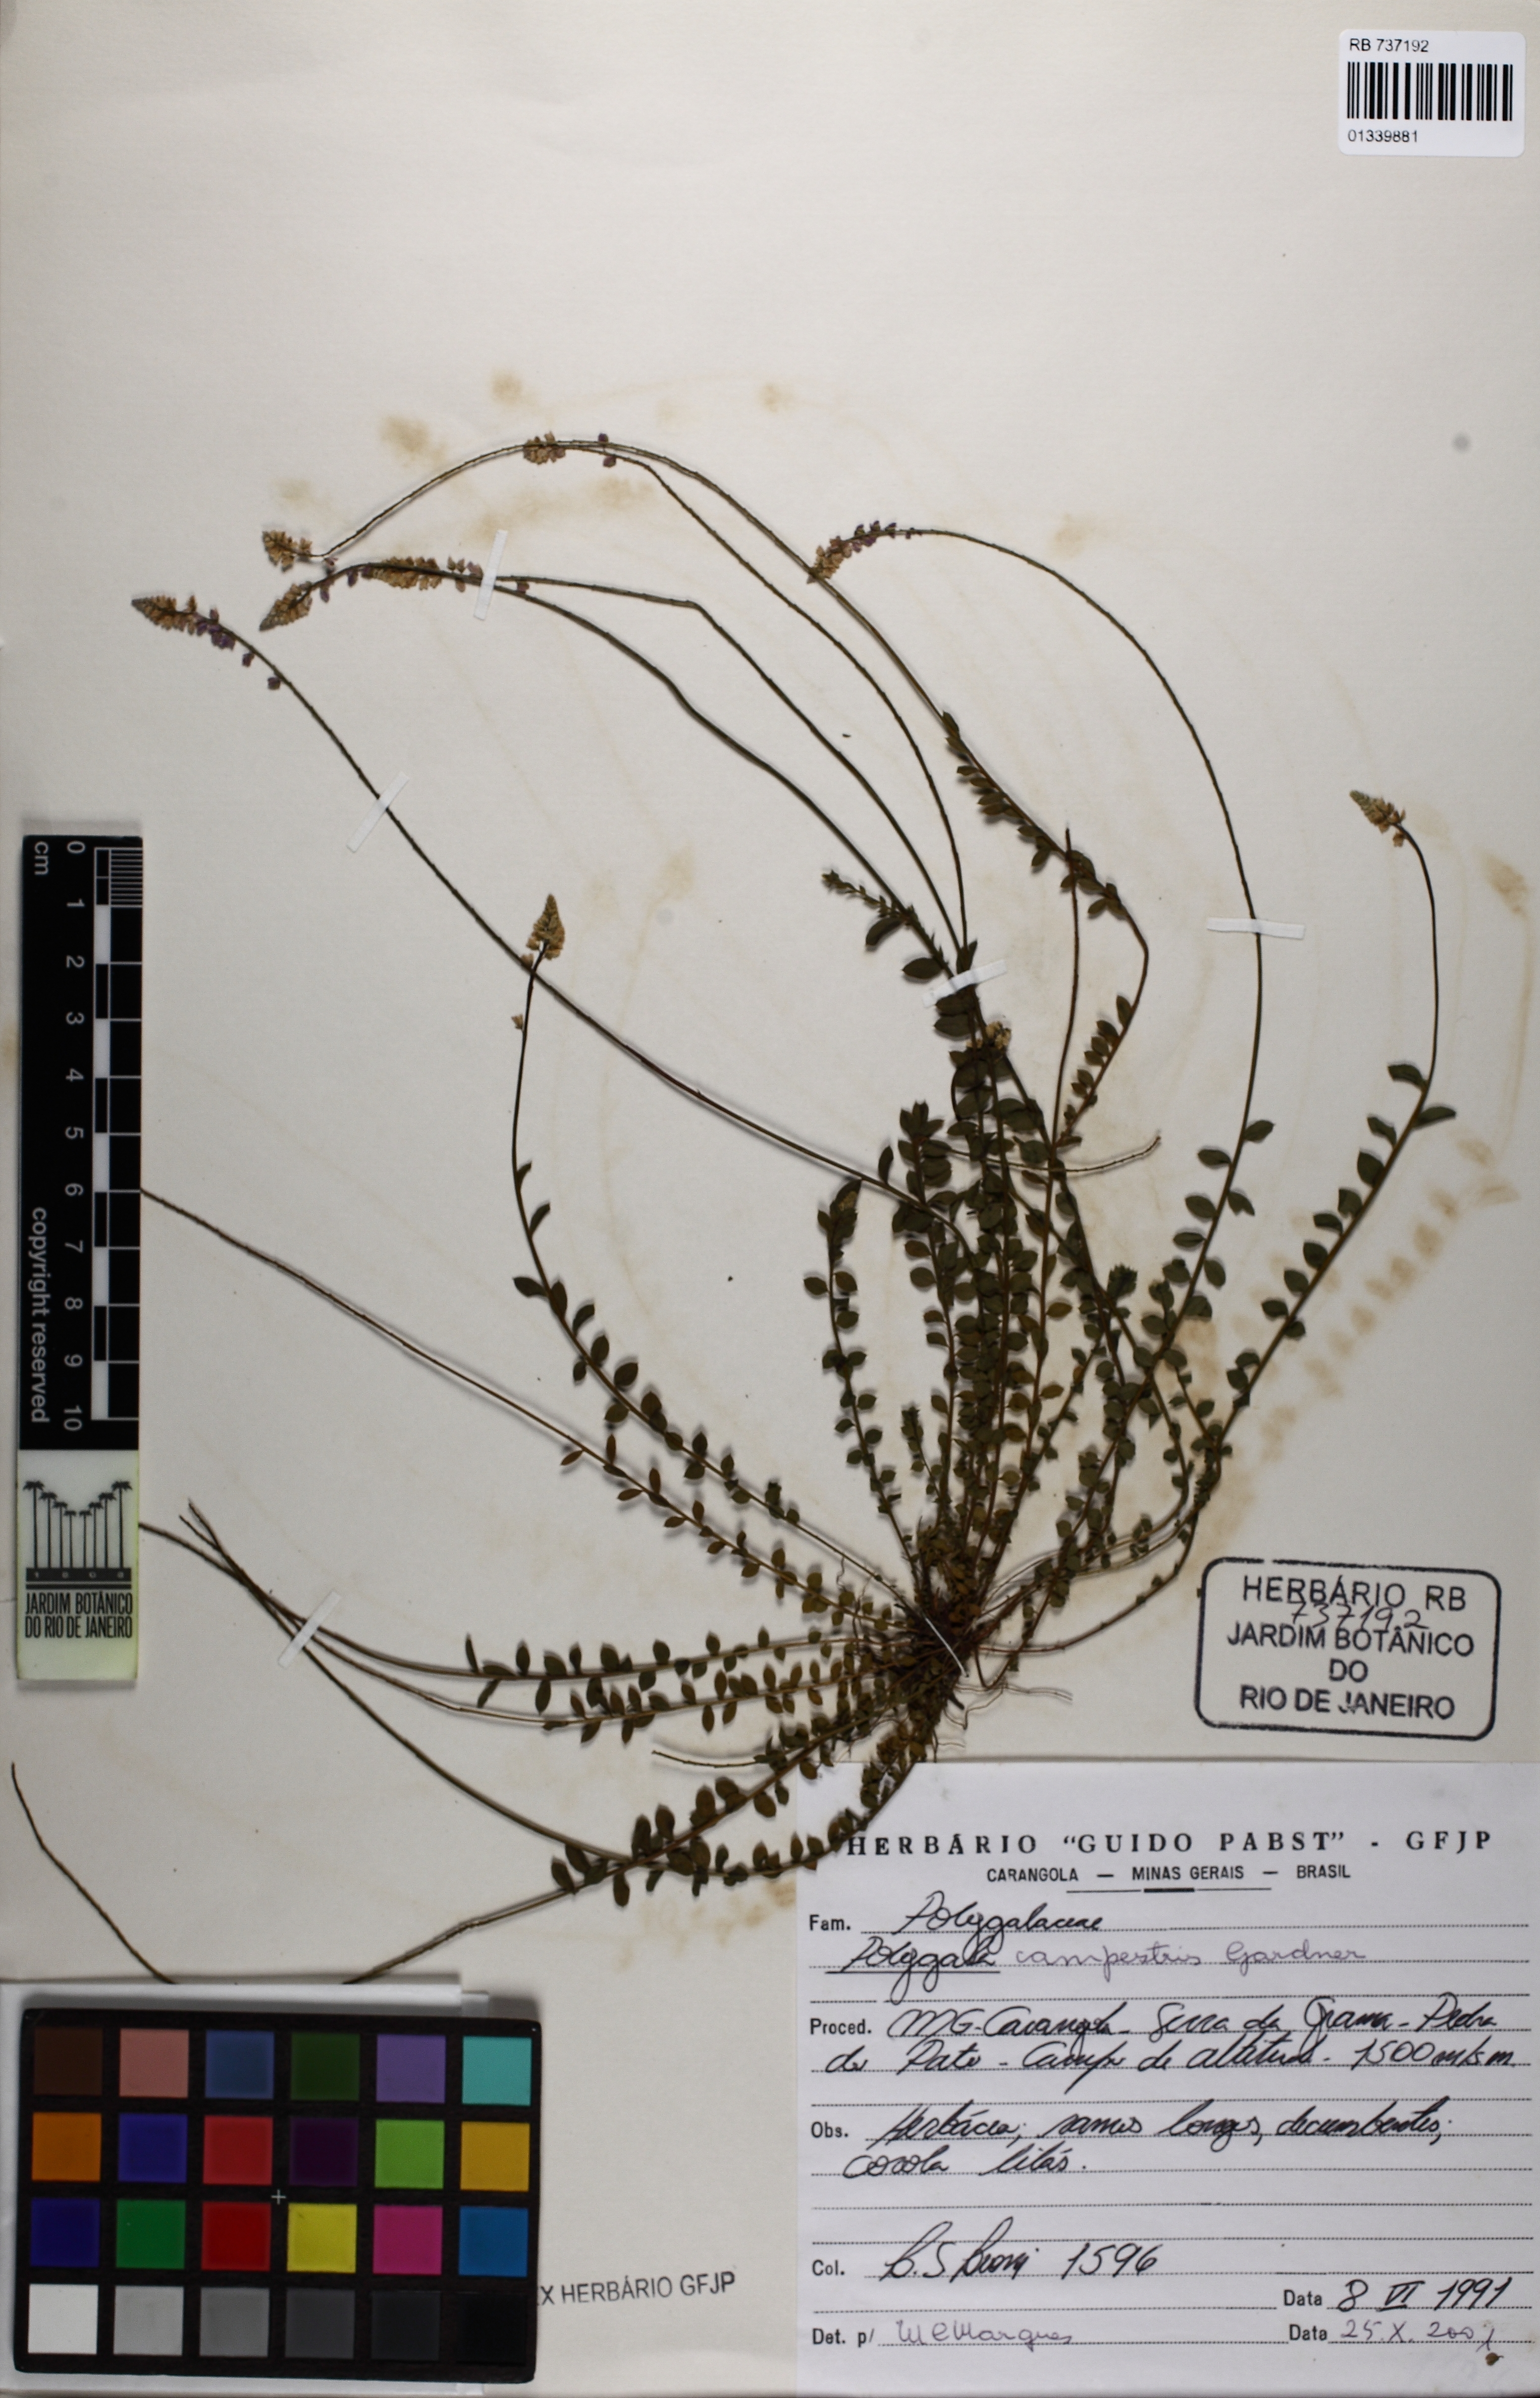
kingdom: Plantae
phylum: Tracheophyta
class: Magnoliopsida
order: Fabales
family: Polygalaceae
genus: Polygala
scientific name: Polygala campestris
